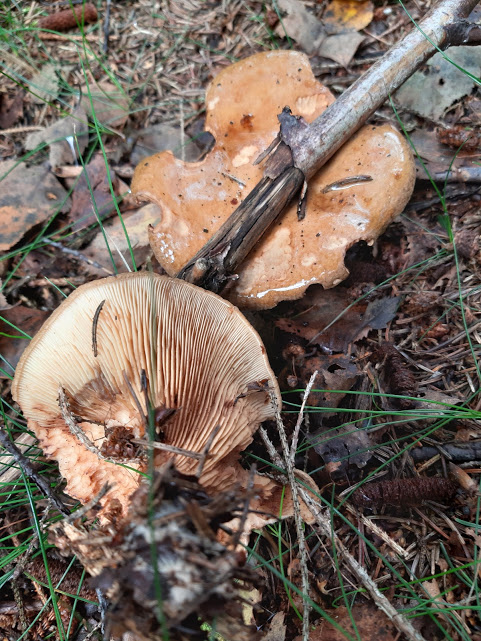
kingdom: Fungi
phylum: Basidiomycota
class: Agaricomycetes
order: Boletales
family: Paxillaceae
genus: Paxillus
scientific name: Paxillus involutus
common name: almindelig netbladhat
